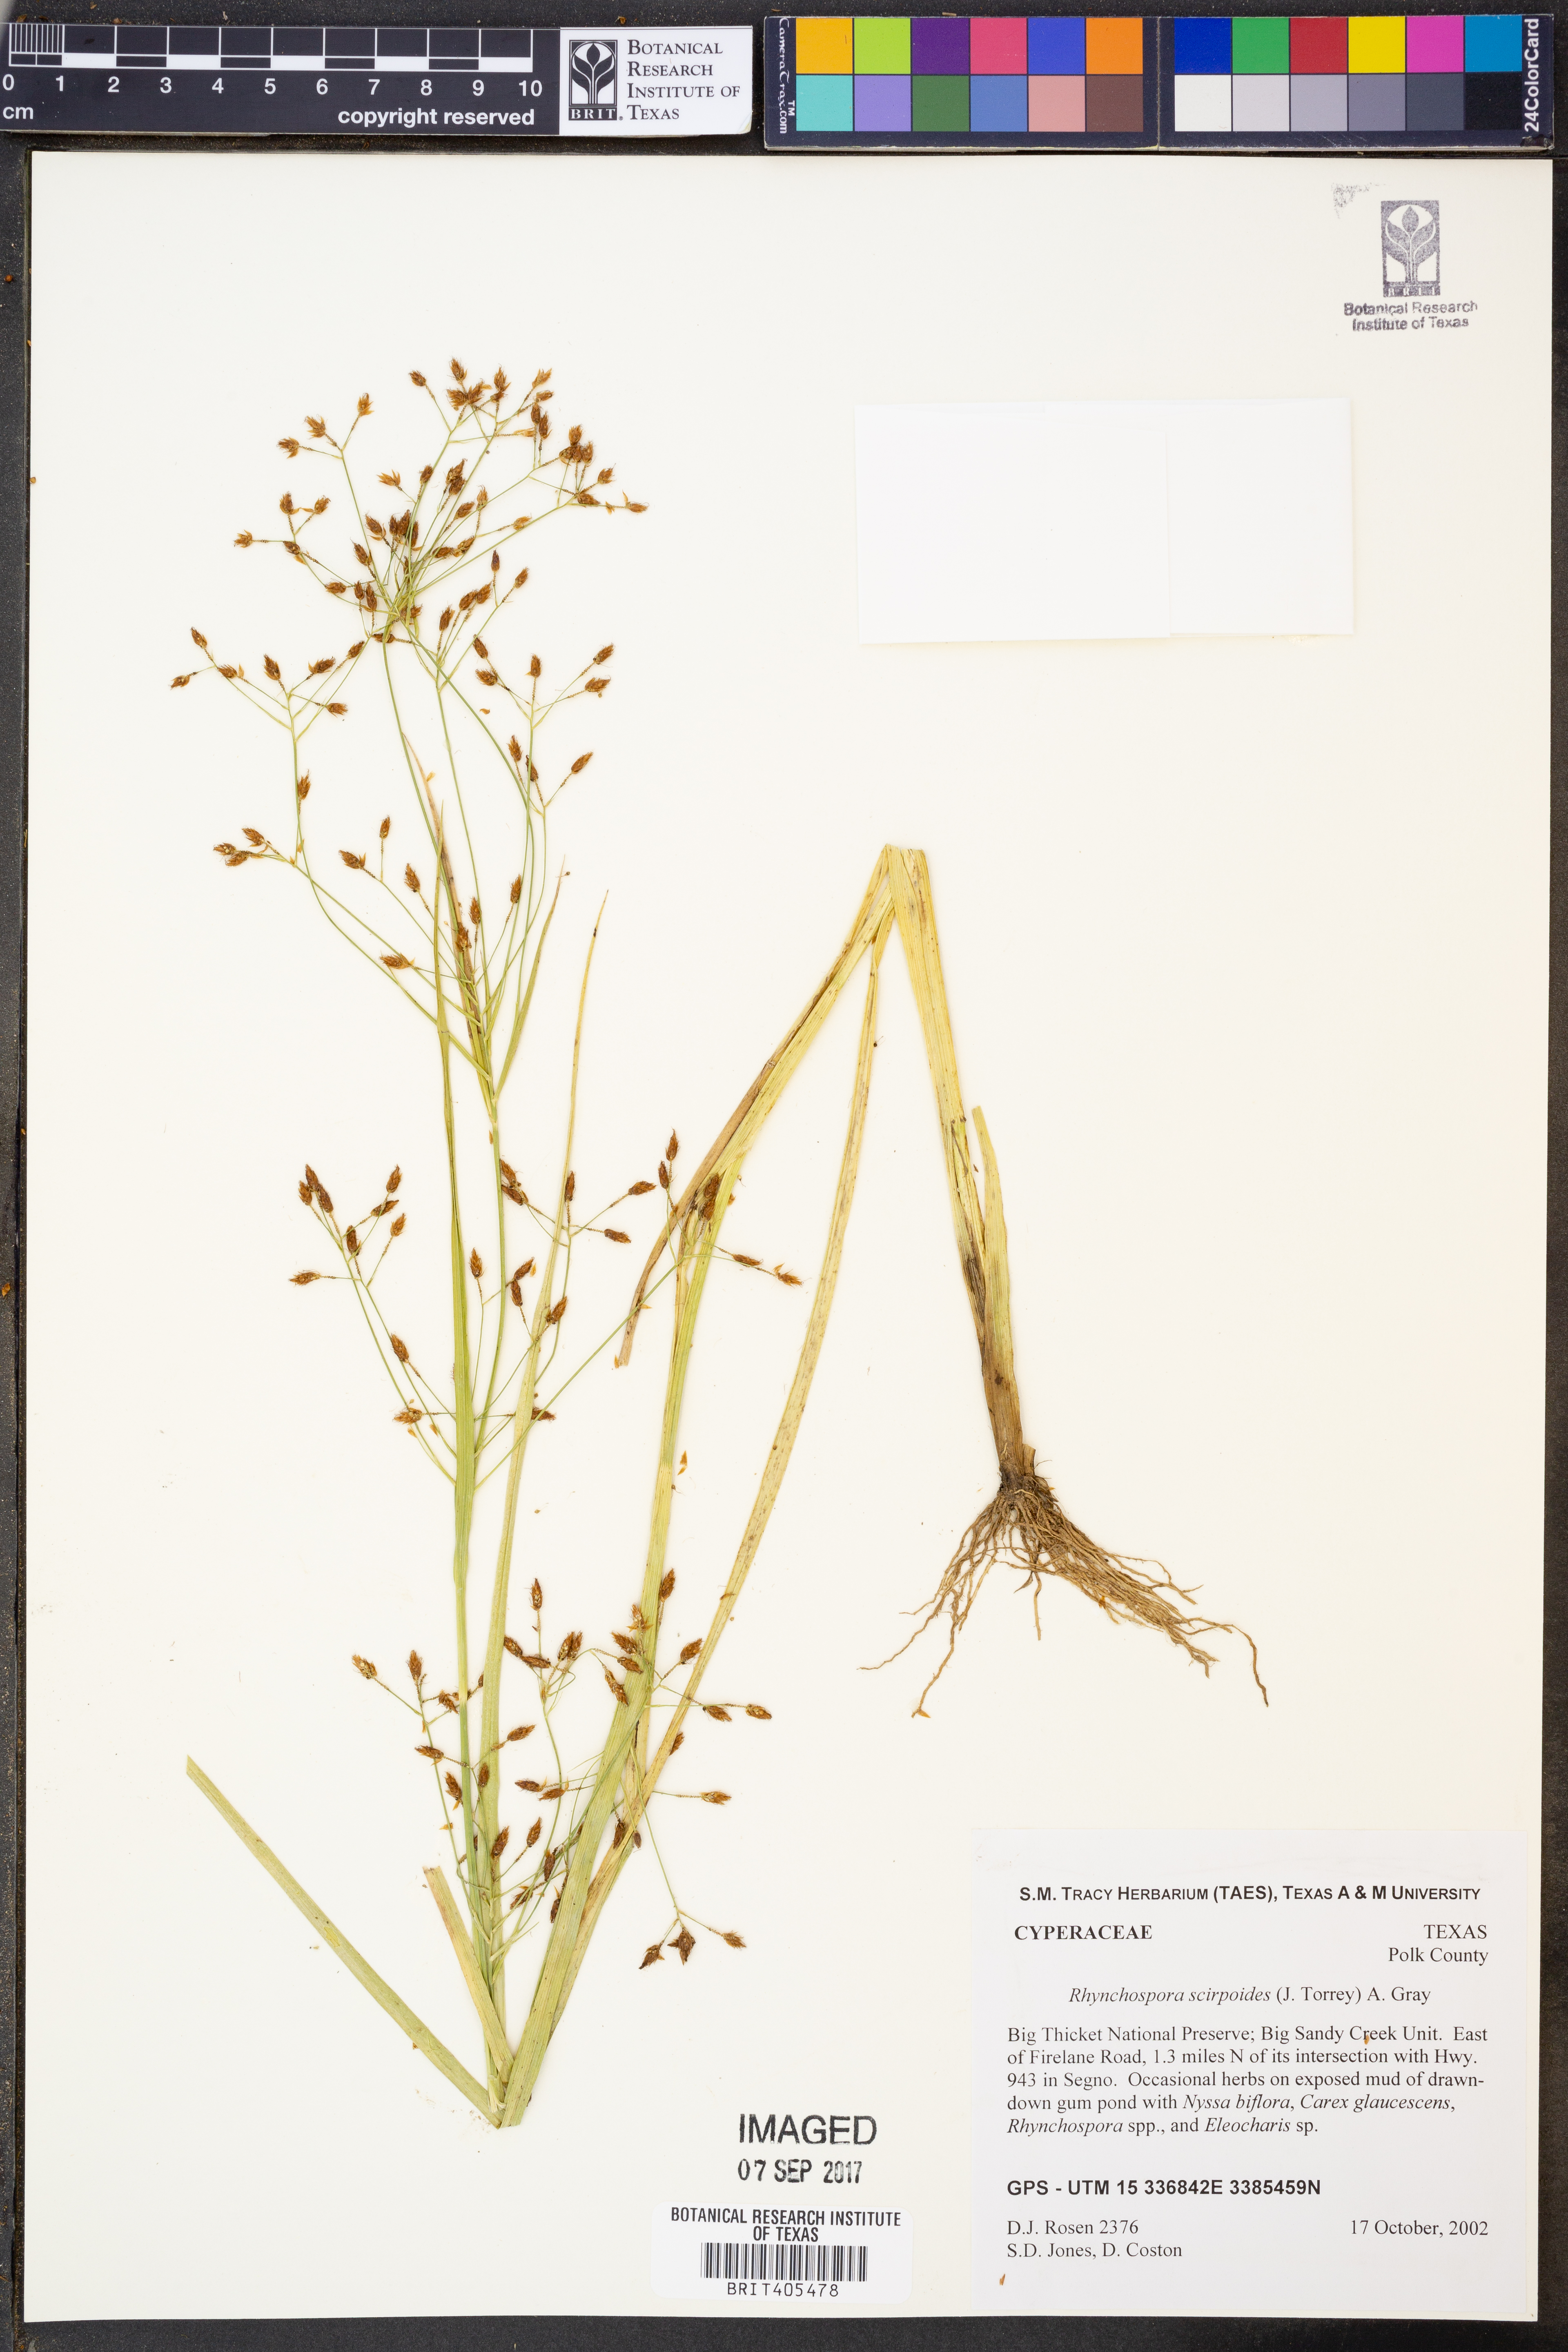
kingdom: Plantae
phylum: Tracheophyta
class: Liliopsida
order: Poales
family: Cyperaceae
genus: Rhynchospora
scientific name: Rhynchospora scirpoides
